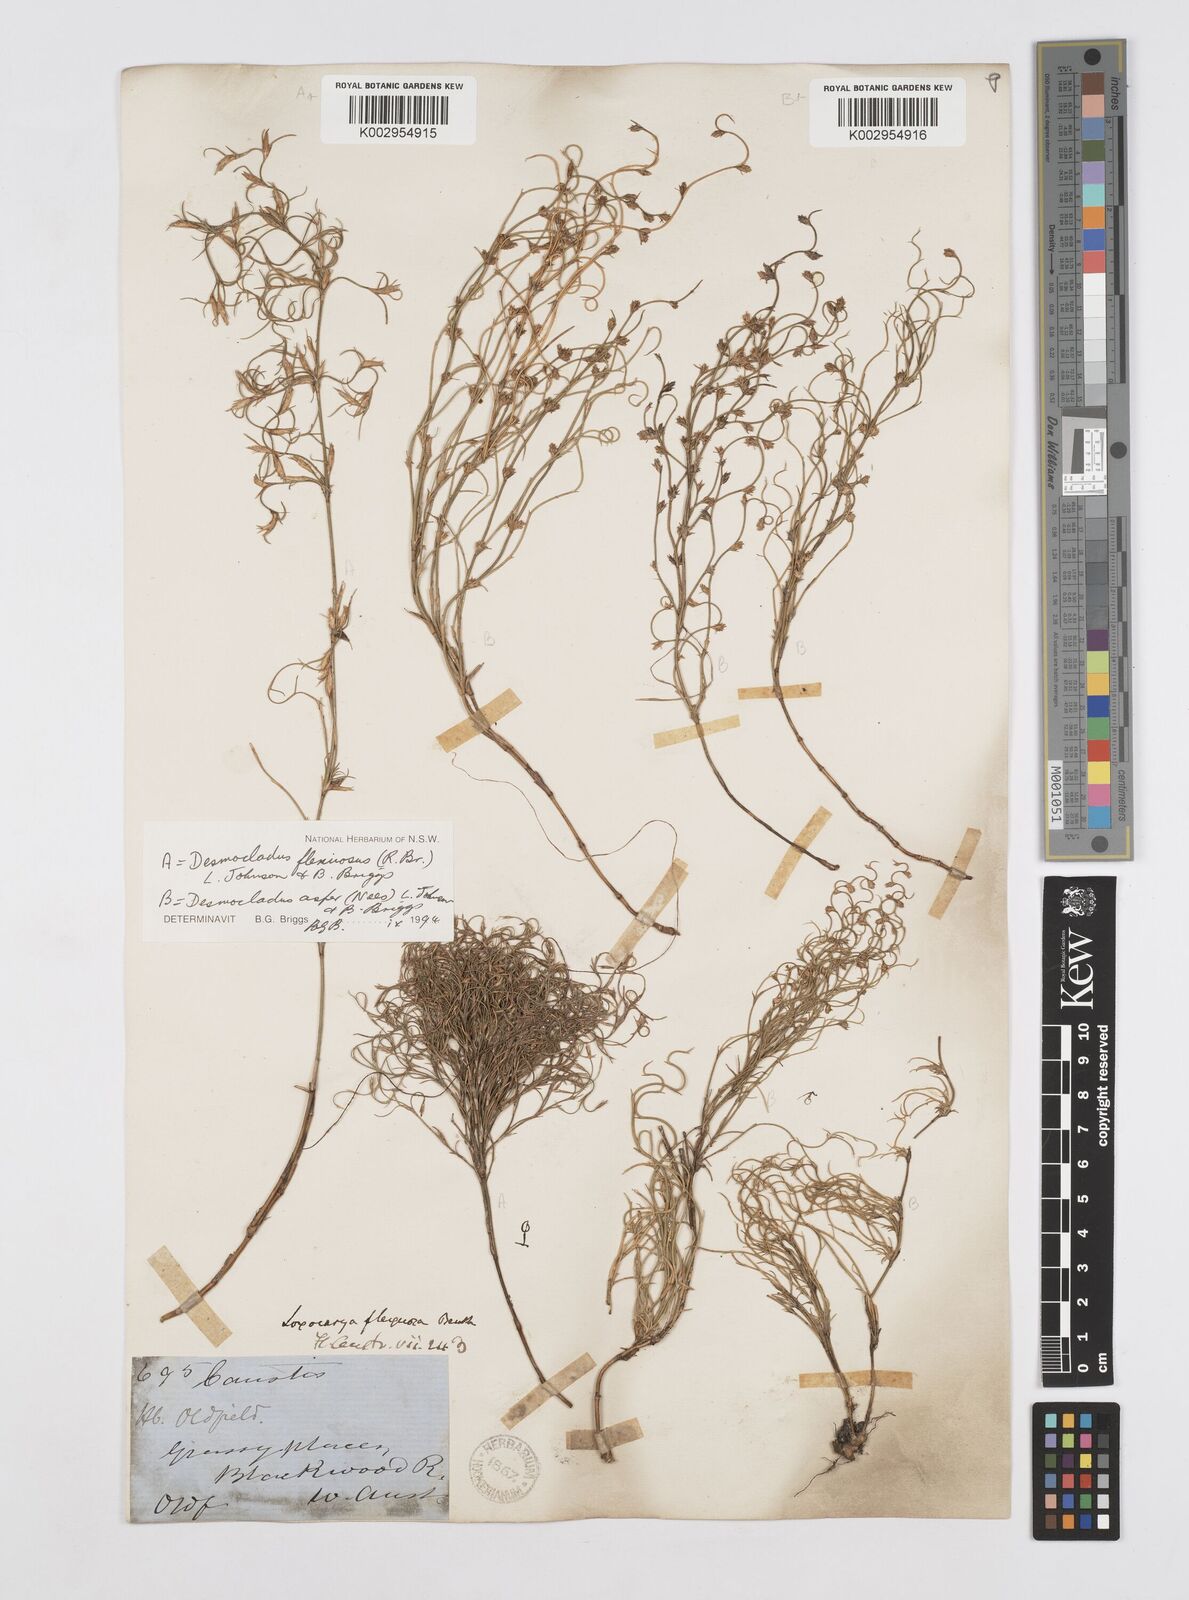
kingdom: Plantae
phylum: Tracheophyta
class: Liliopsida
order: Poales
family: Restionaceae
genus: Desmocladus
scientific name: Desmocladus flexuosus
